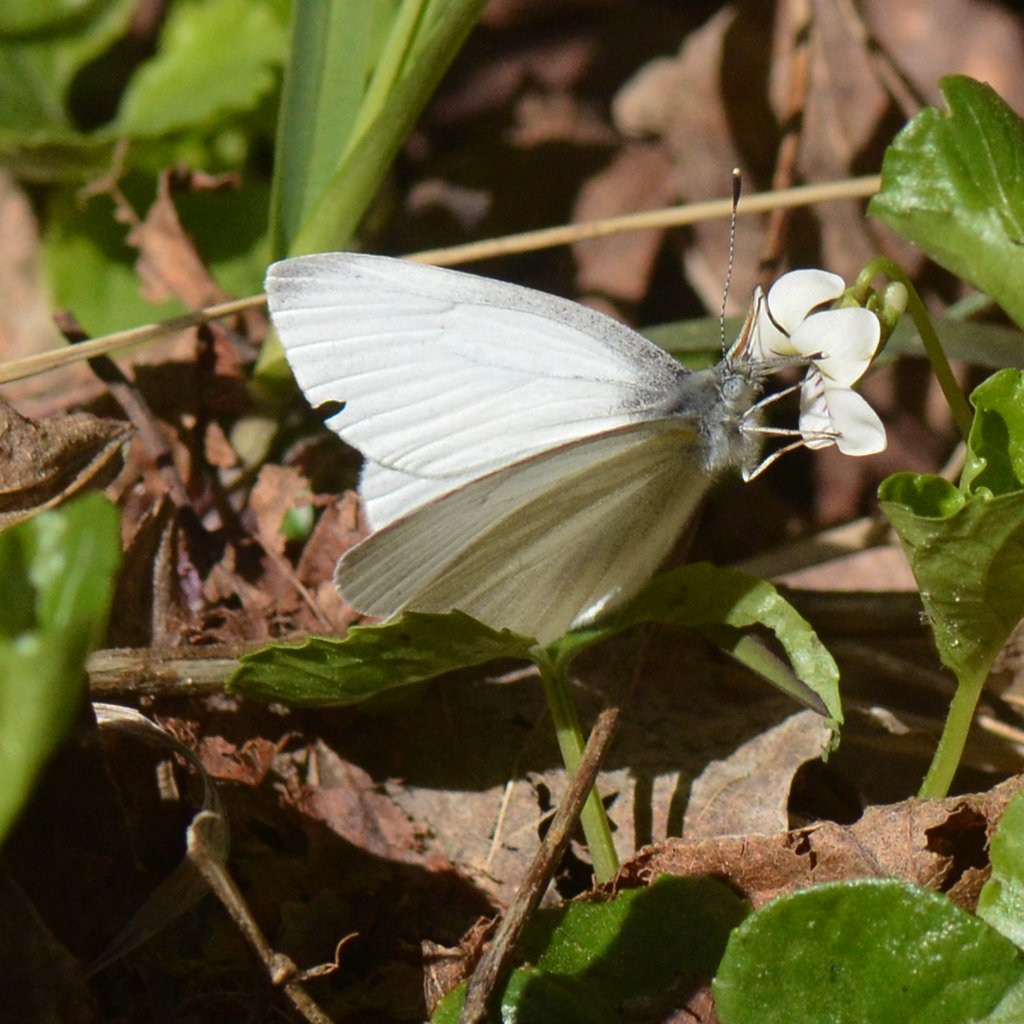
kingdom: Animalia
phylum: Arthropoda
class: Insecta
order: Lepidoptera
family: Pieridae
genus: Pieris
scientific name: Pieris virginiensis
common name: West Virginia White
